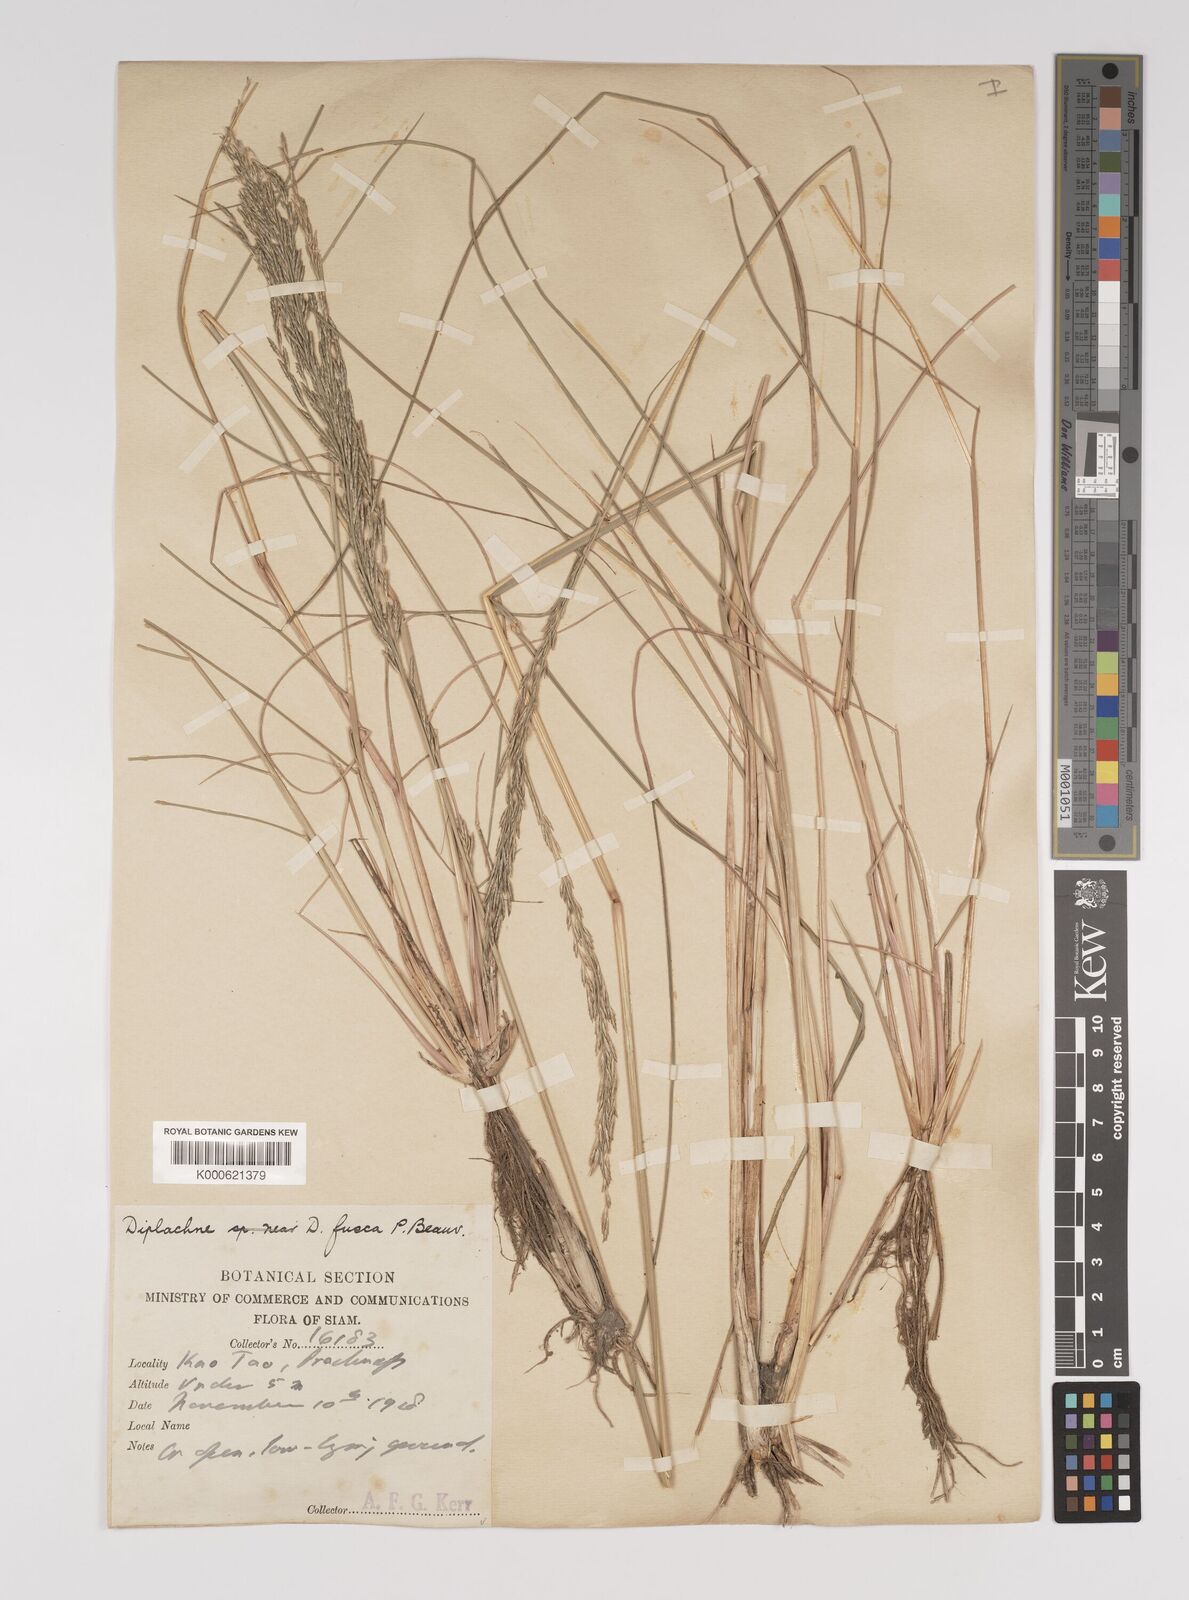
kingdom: Plantae
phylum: Tracheophyta
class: Liliopsida
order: Poales
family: Poaceae
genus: Diplachne
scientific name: Diplachne fusca
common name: Brown beetle grass
